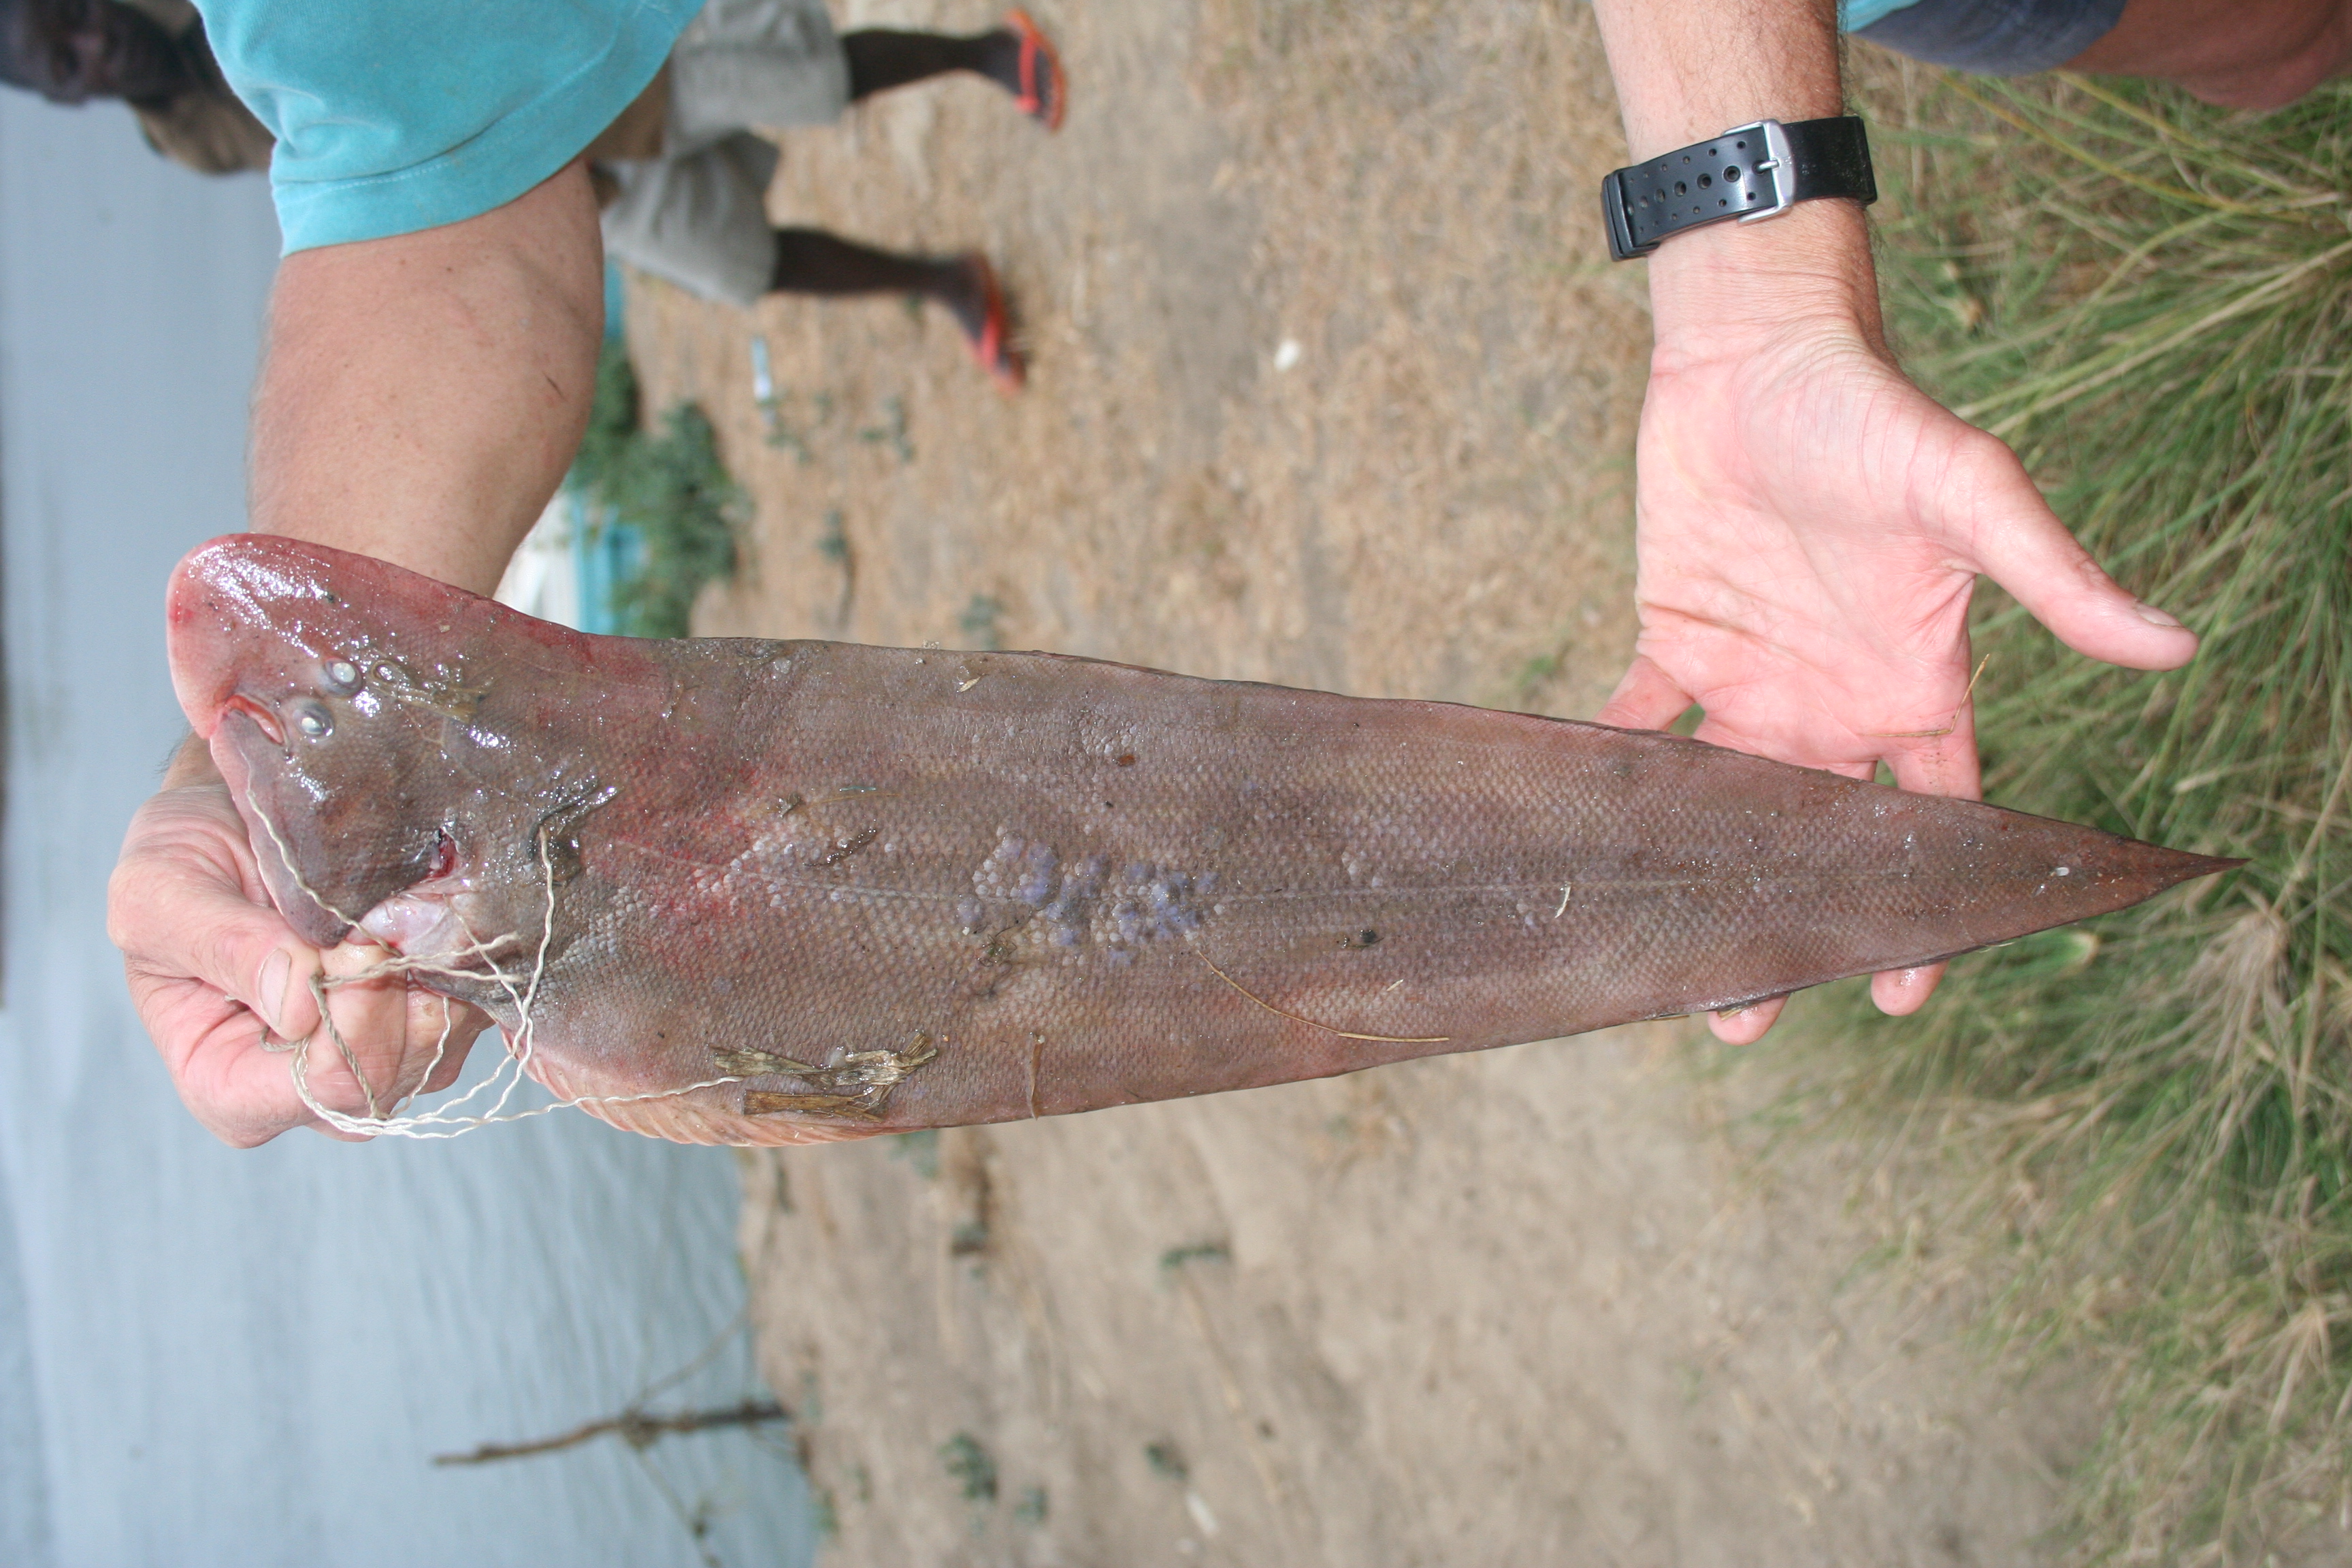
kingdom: Animalia
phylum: Chordata
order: Pleuronectiformes
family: Cynoglossidae
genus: Cynoglossus
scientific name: Cynoglossus browni
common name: Nigerian tonguesole
